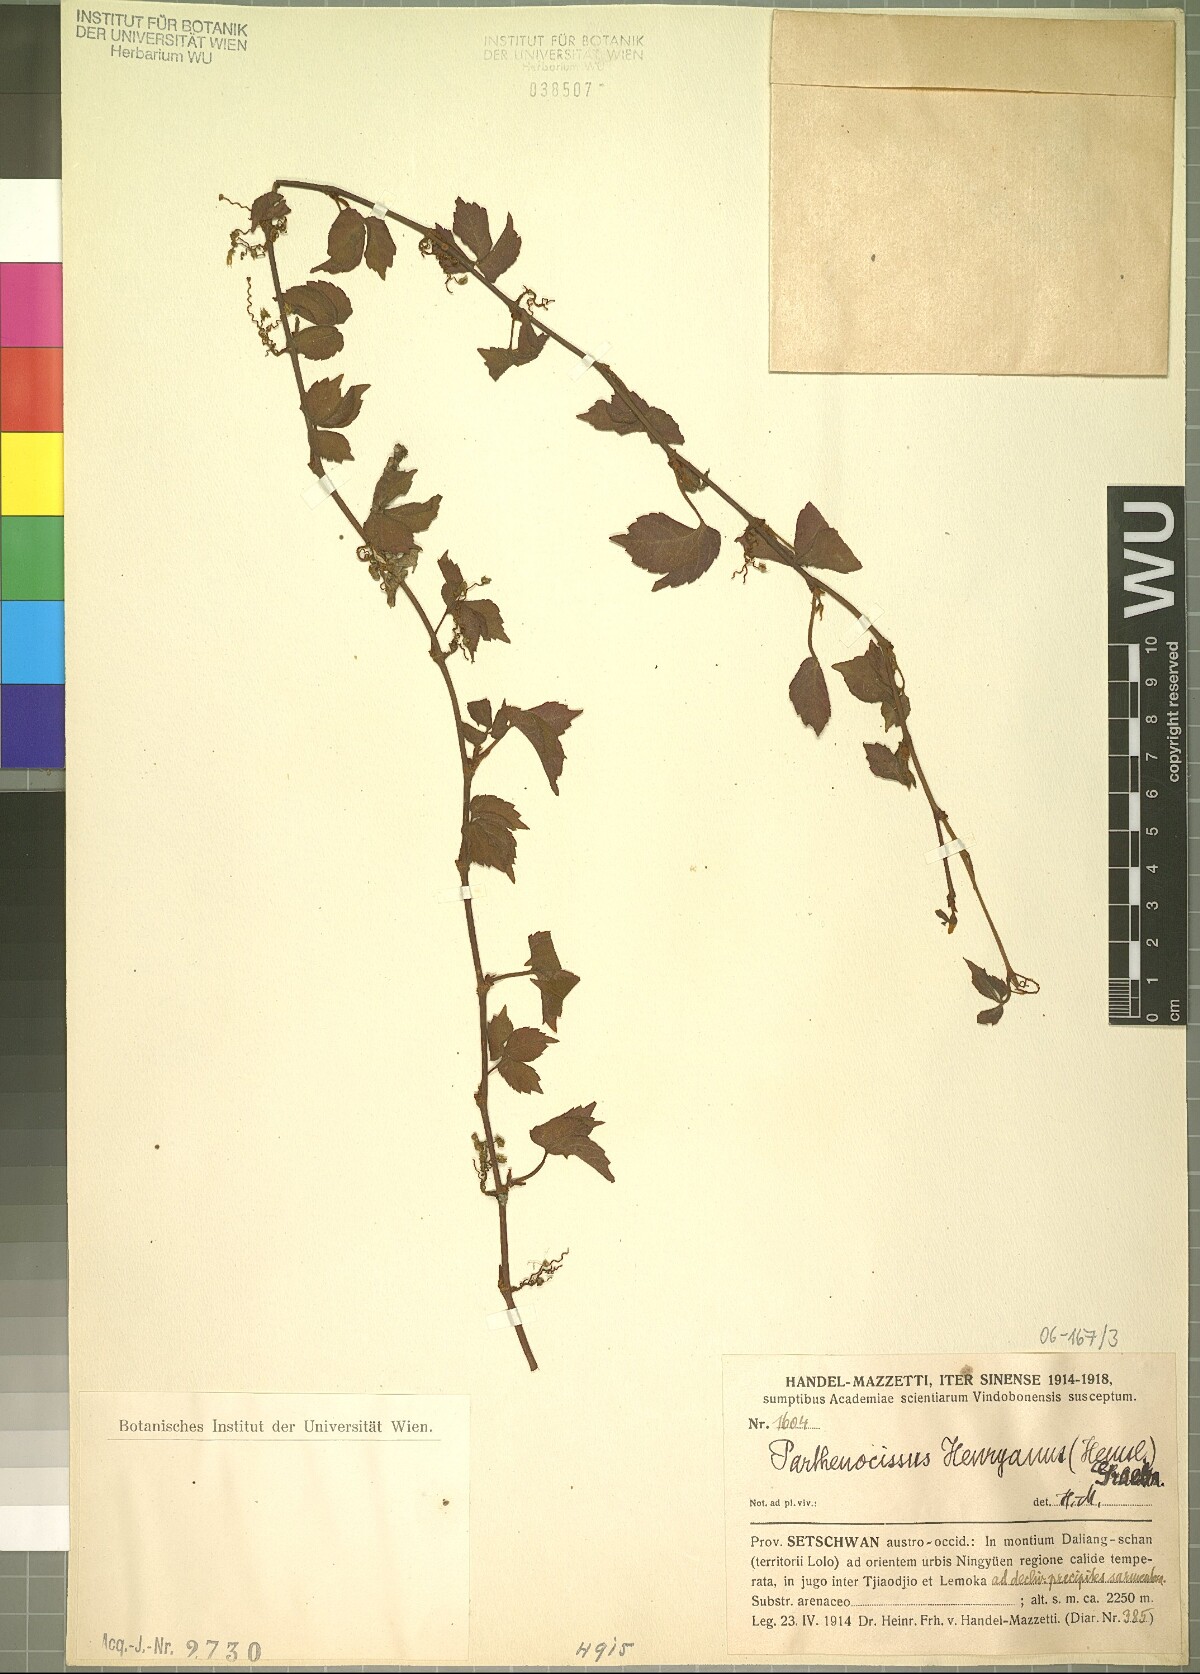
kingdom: Plantae
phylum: Tracheophyta
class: Magnoliopsida
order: Vitales
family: Vitaceae
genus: Parthenocissus
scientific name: Parthenocissus henryana
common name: Chinese virginia-creeper
